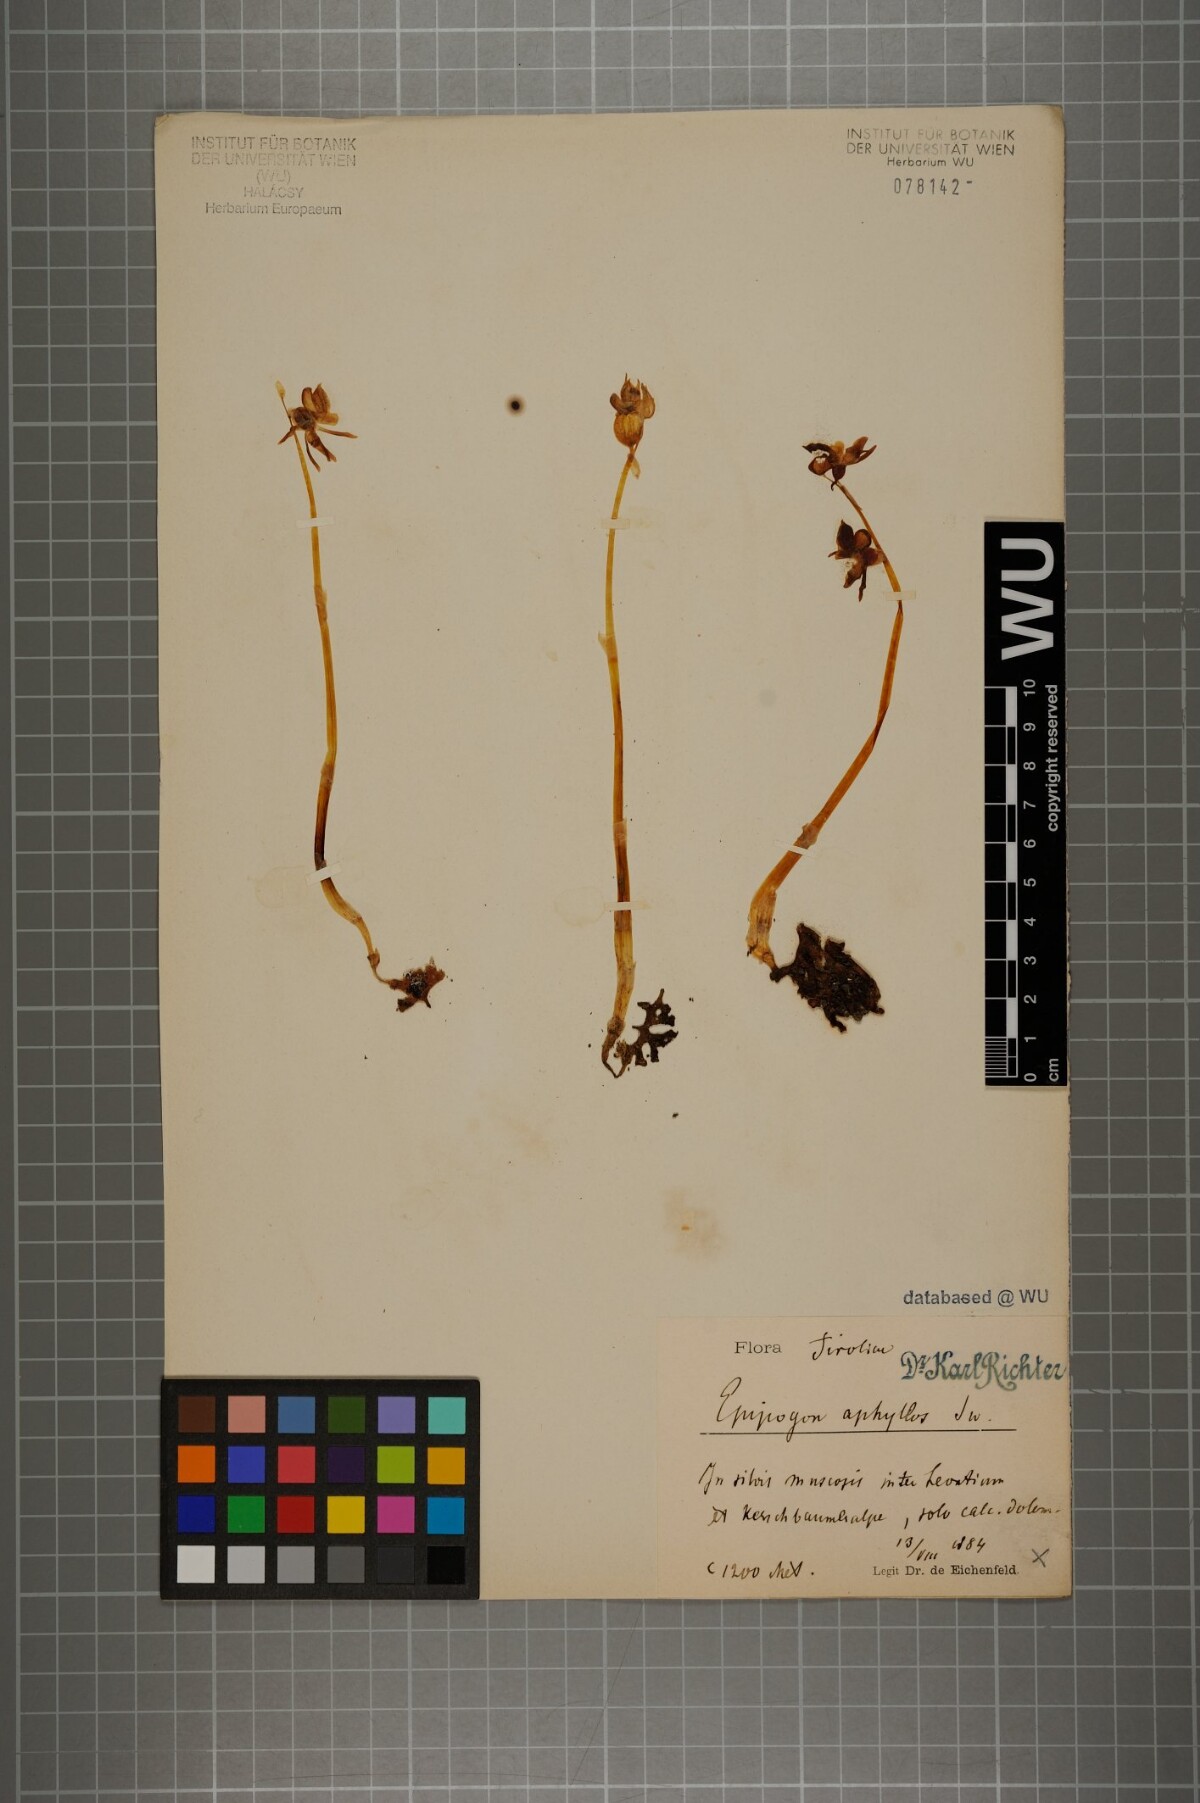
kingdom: Plantae
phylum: Tracheophyta
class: Liliopsida
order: Asparagales
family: Orchidaceae
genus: Epipogium
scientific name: Epipogium aphyllum
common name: Ghost orchid
